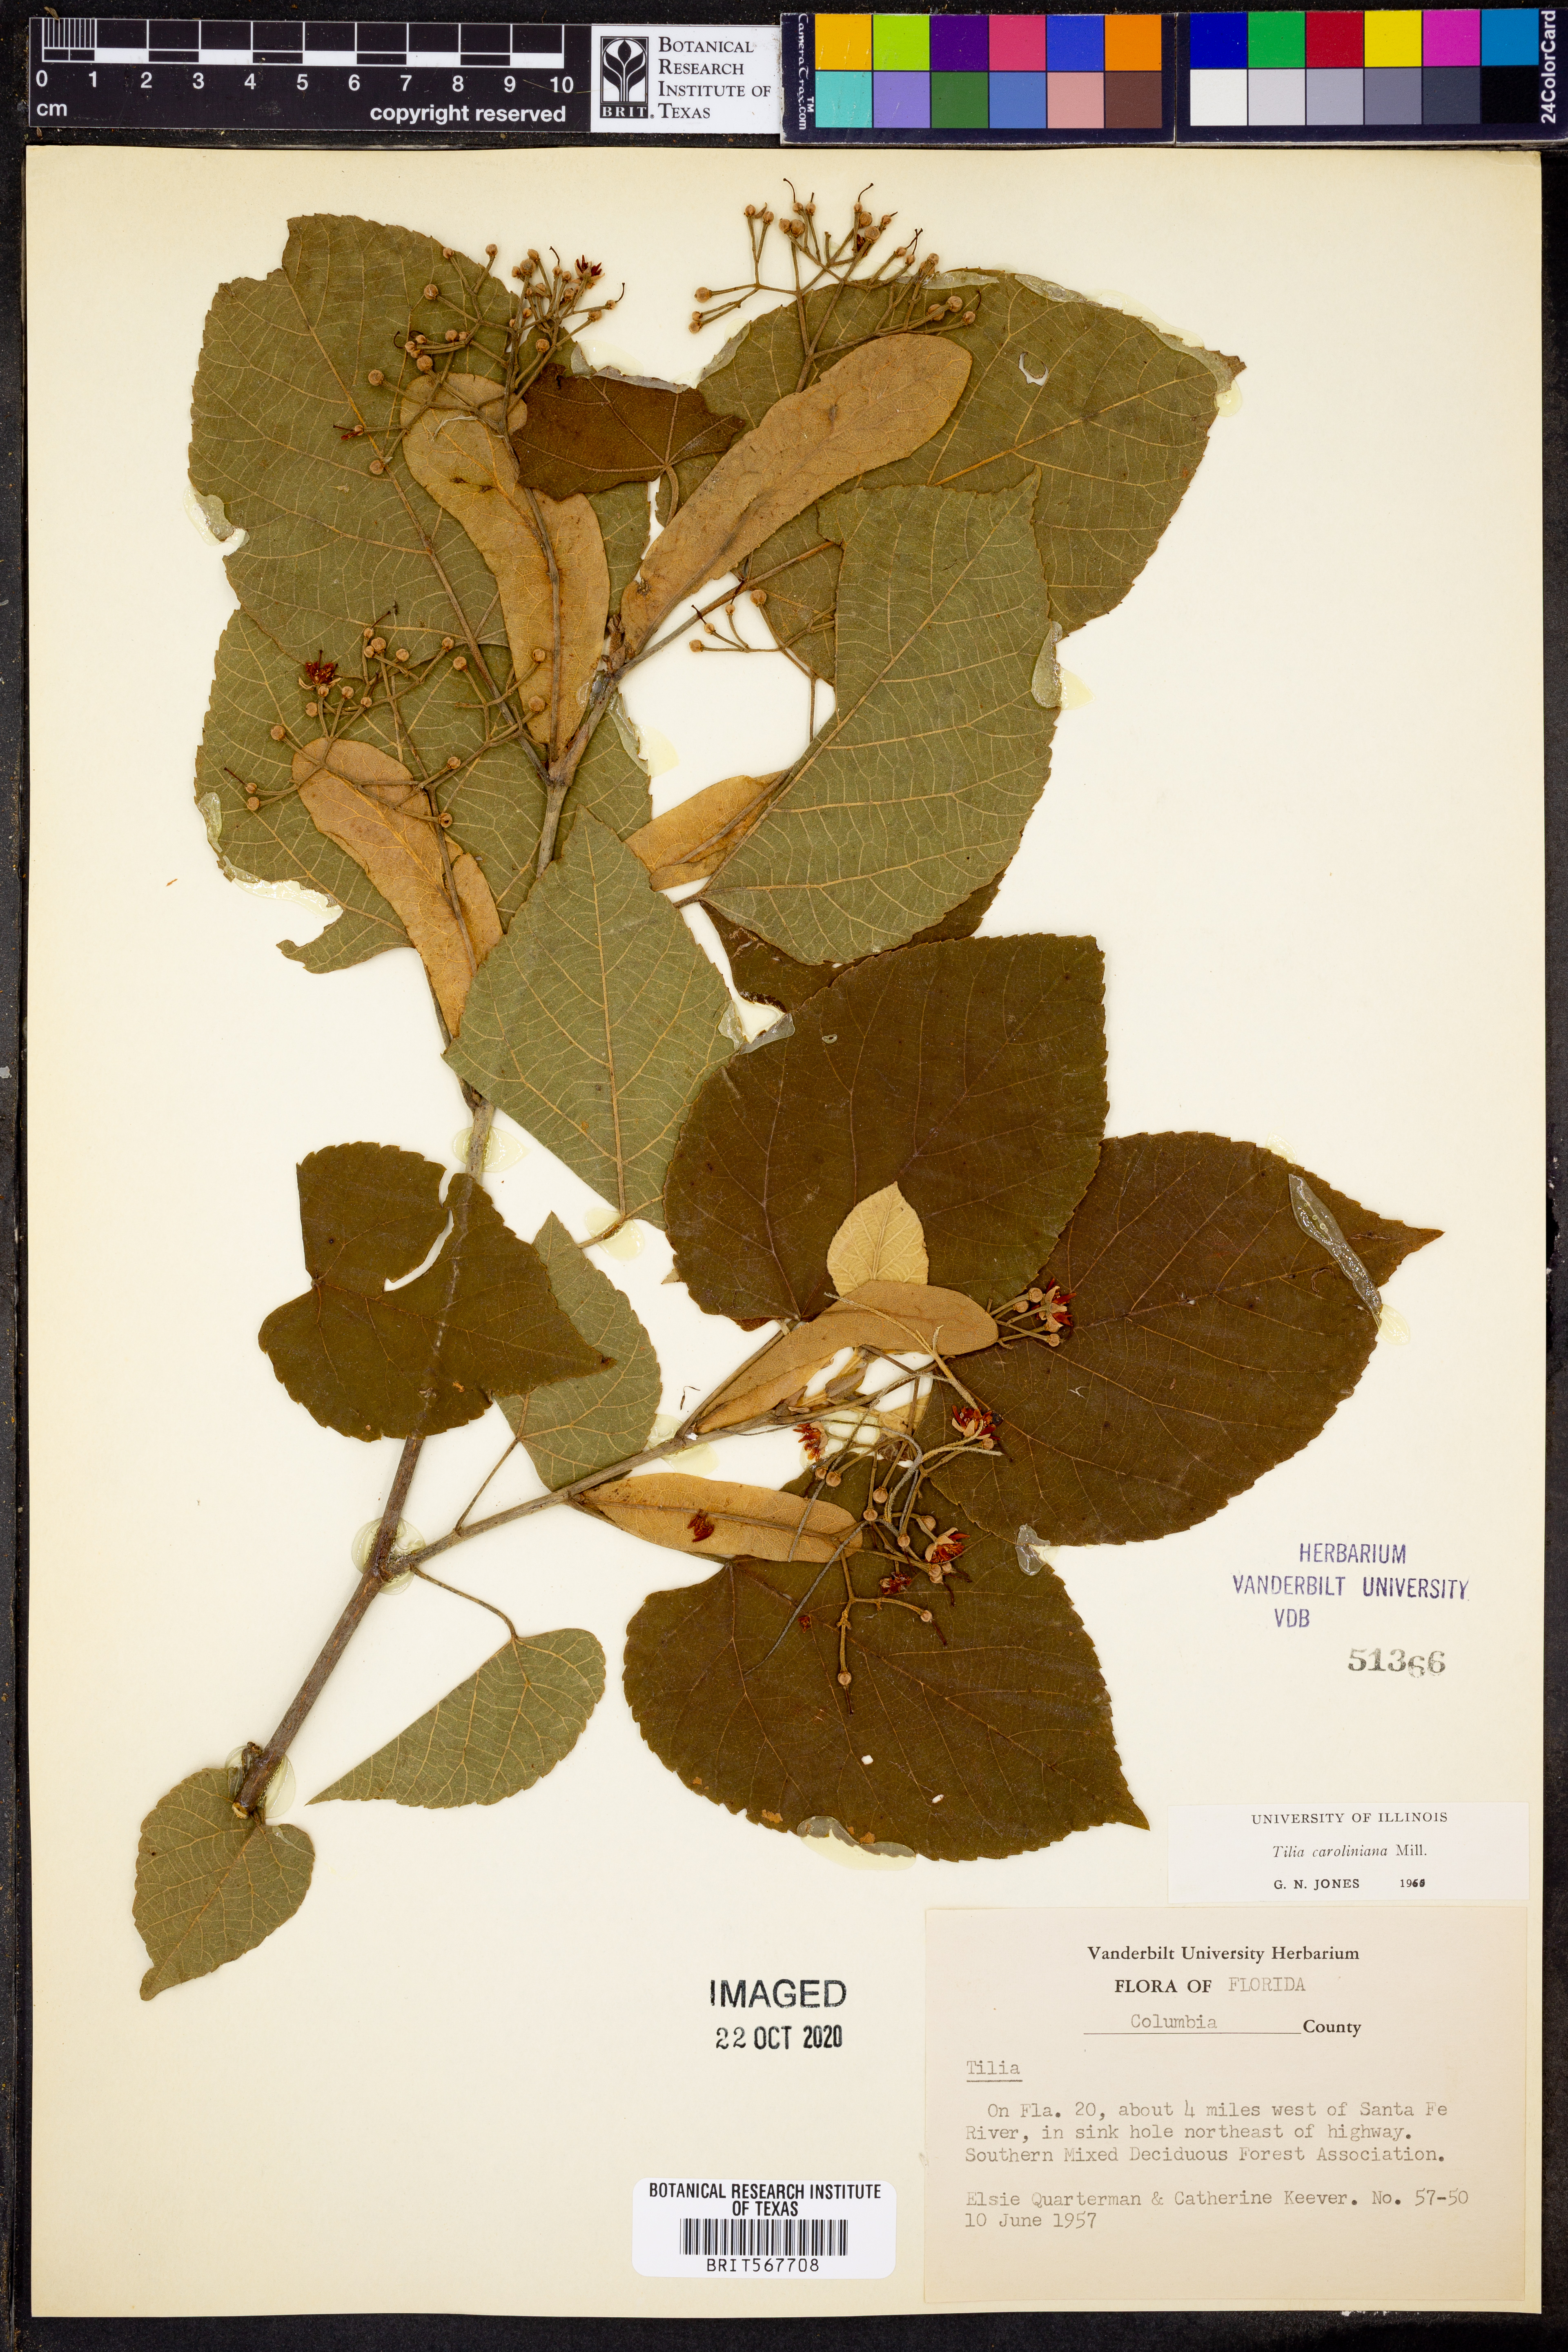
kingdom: Plantae
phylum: Tracheophyta
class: Magnoliopsida
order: Malvales
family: Malvaceae
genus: Tilia
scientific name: Tilia americana
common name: Basswood
